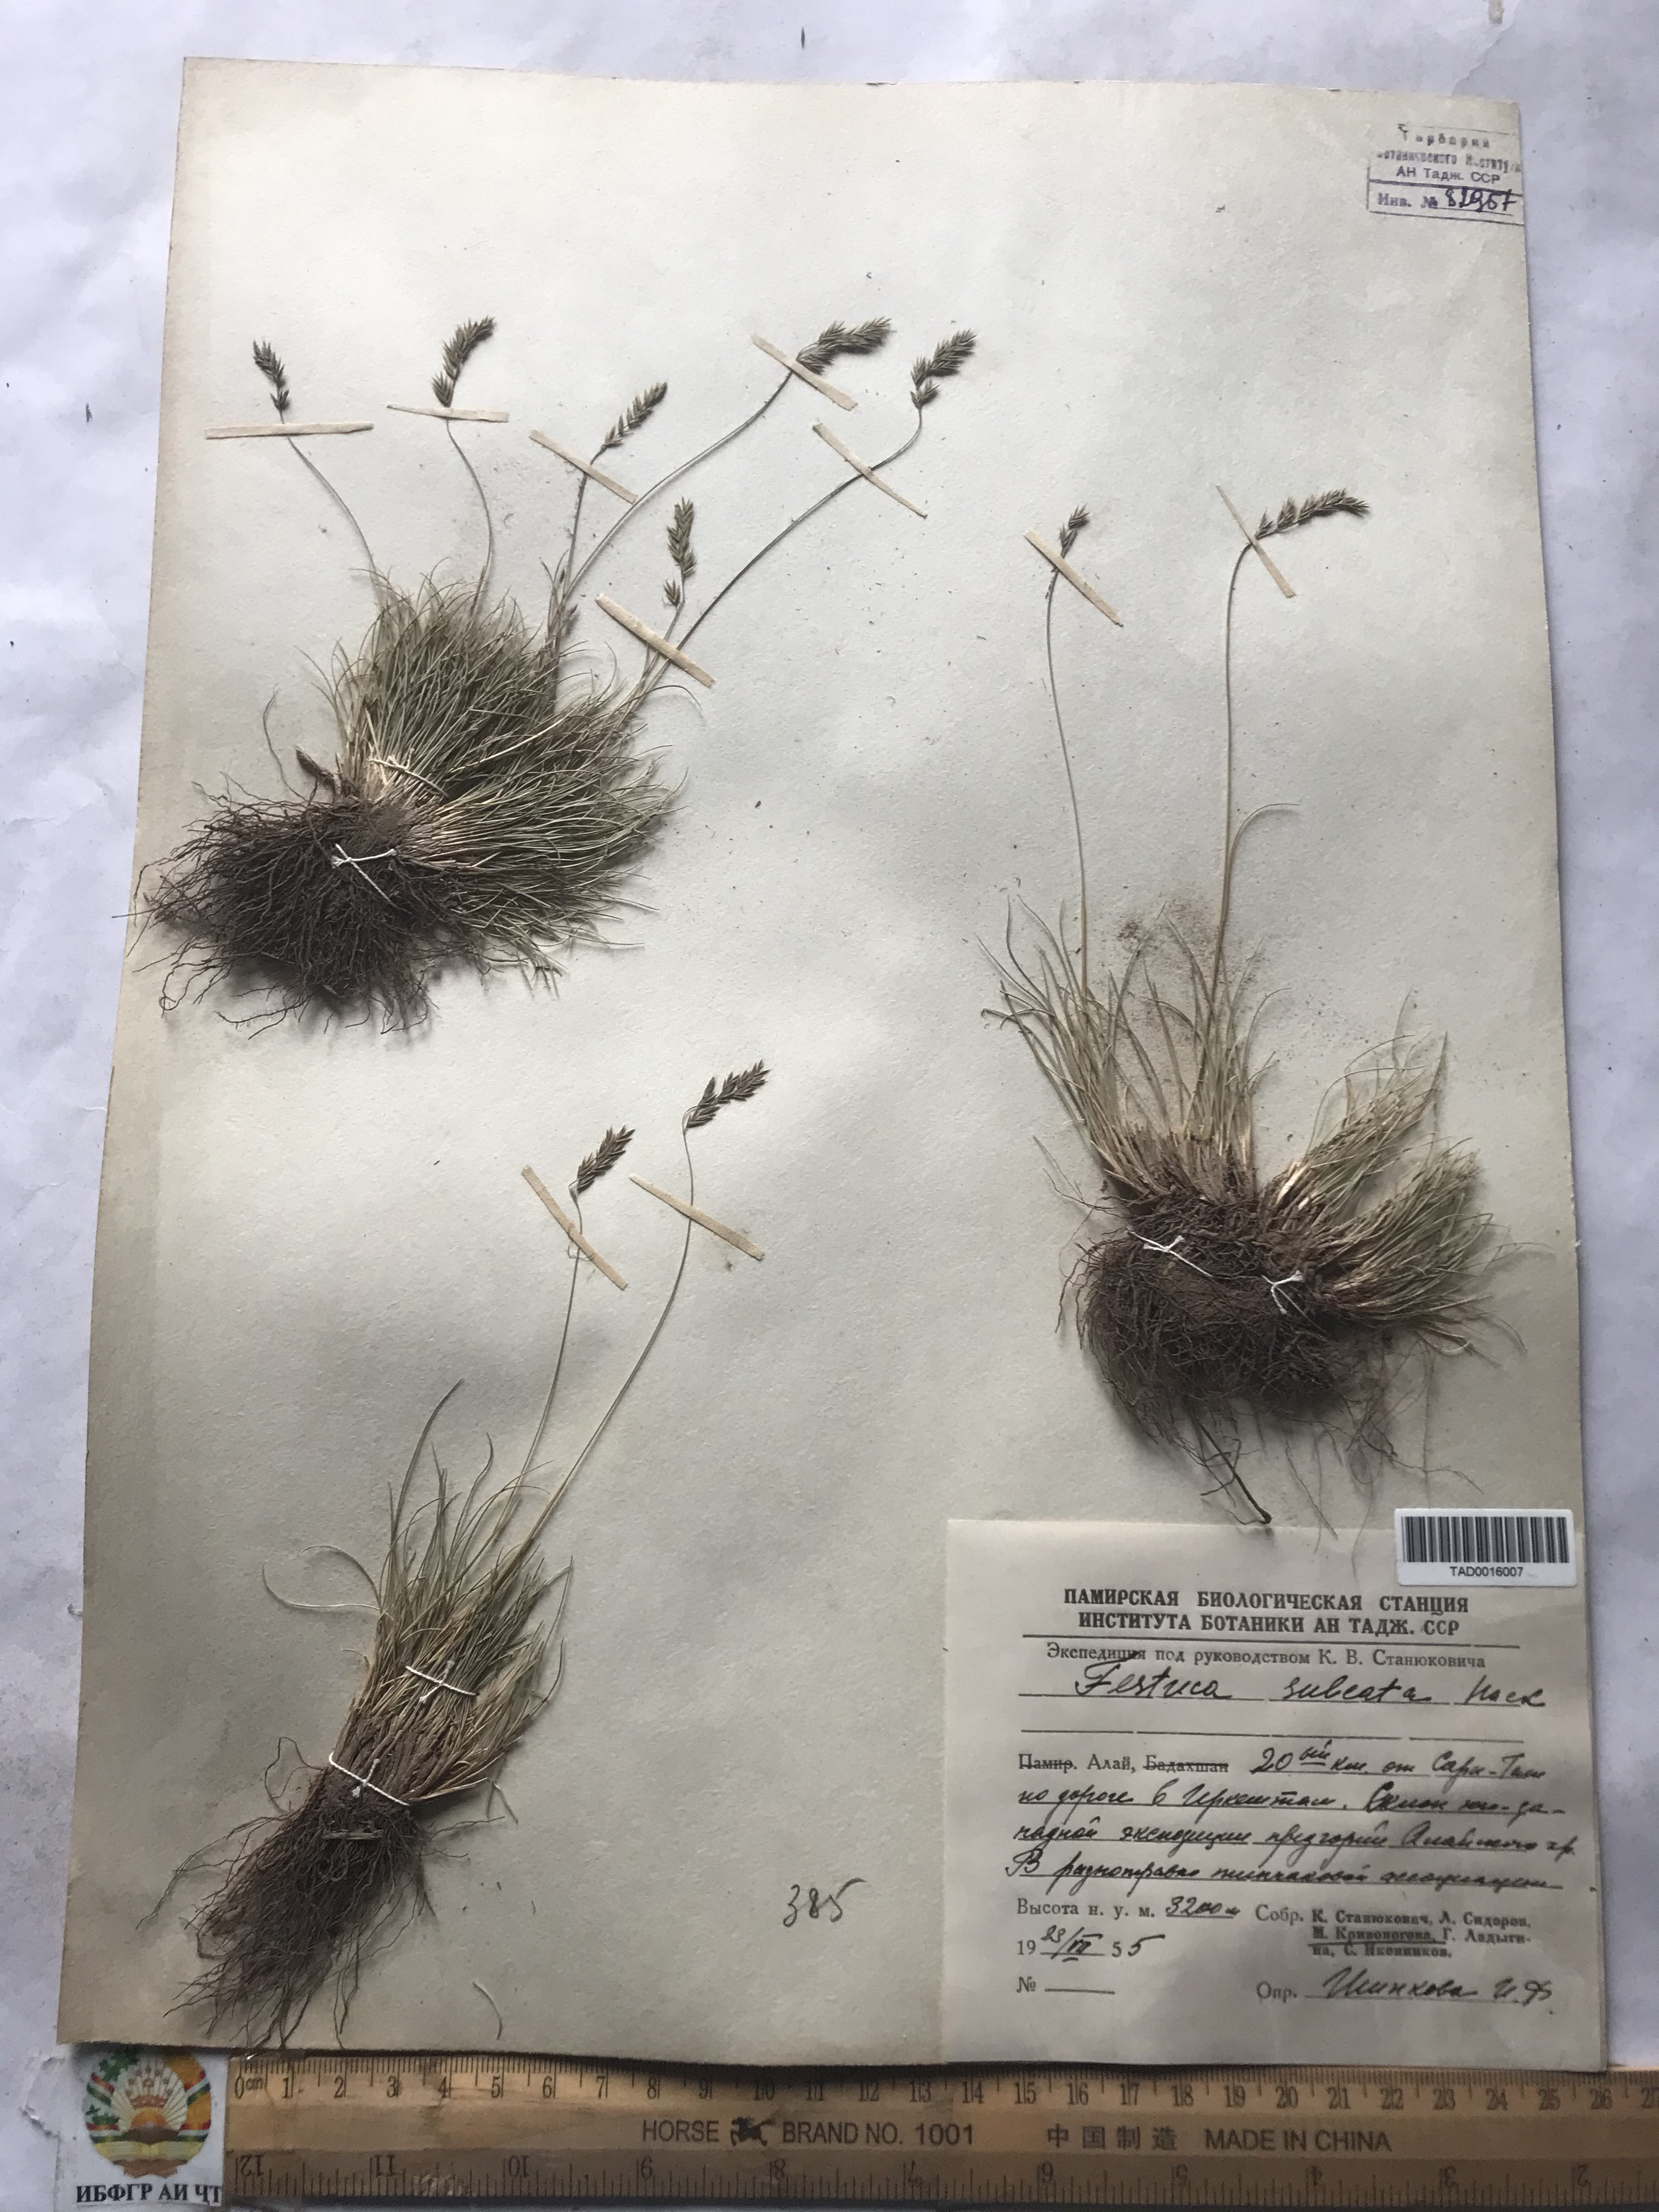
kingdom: Plantae
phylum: Tracheophyta
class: Liliopsida
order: Poales
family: Poaceae
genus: Festuca
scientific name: Festuca sulcata
